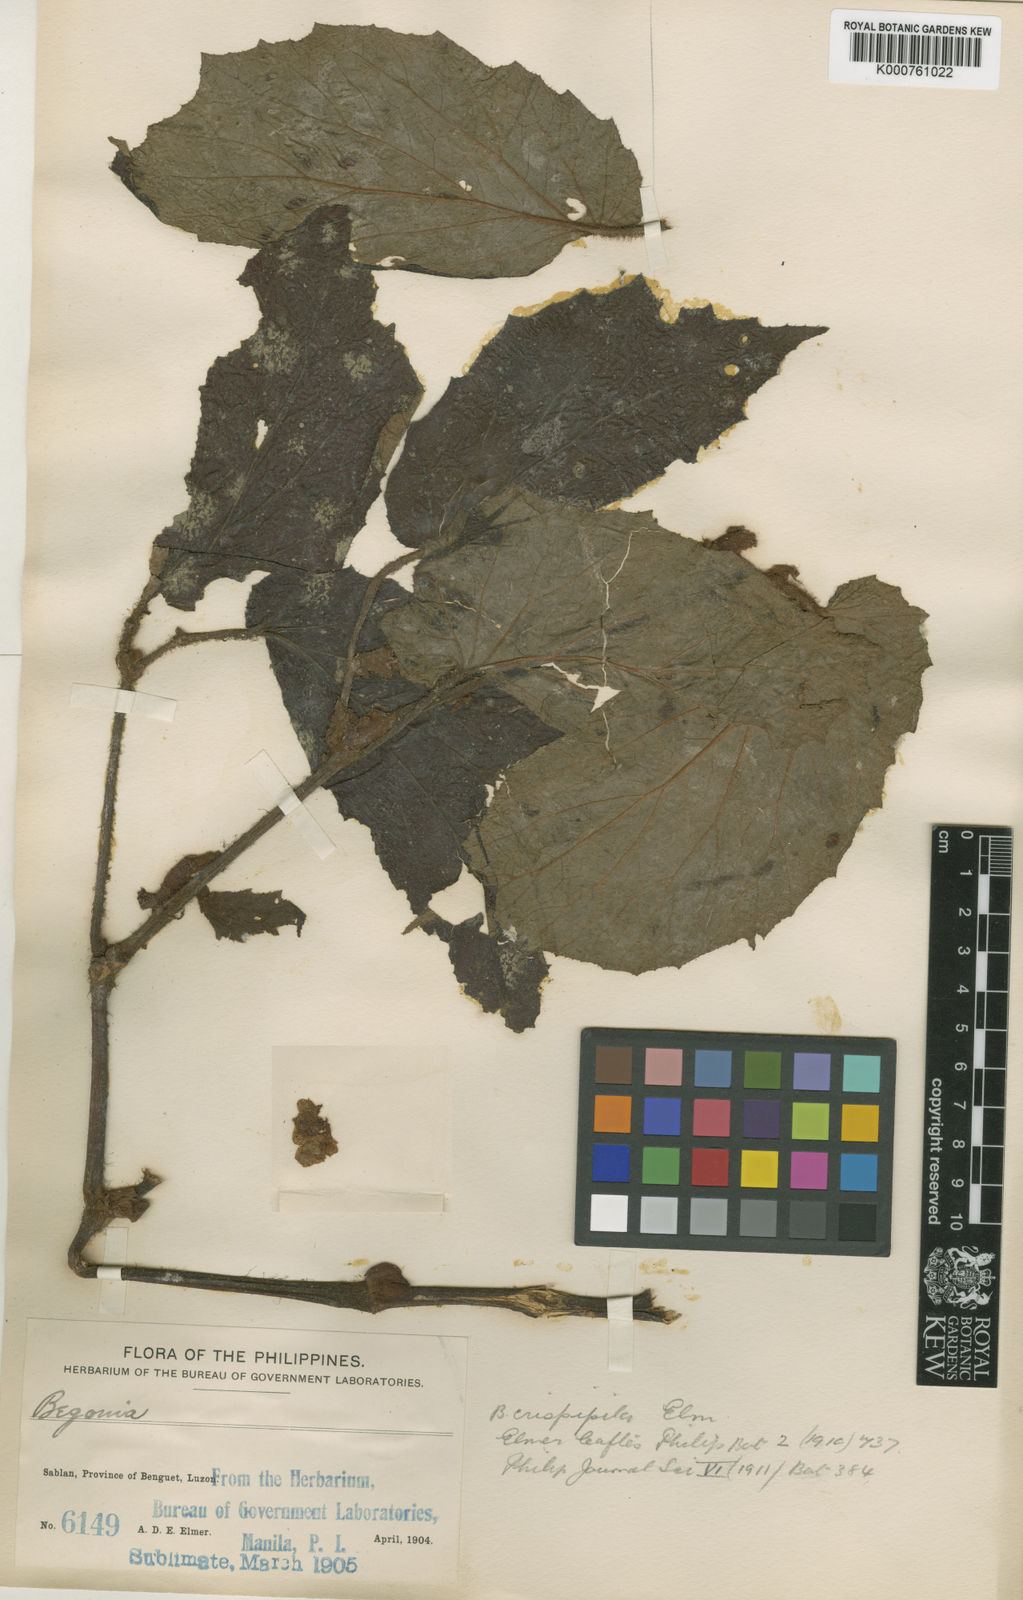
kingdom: Plantae
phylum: Tracheophyta
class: Magnoliopsida
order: Cucurbitales
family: Begoniaceae
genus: Begonia
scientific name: Begonia crispipila
